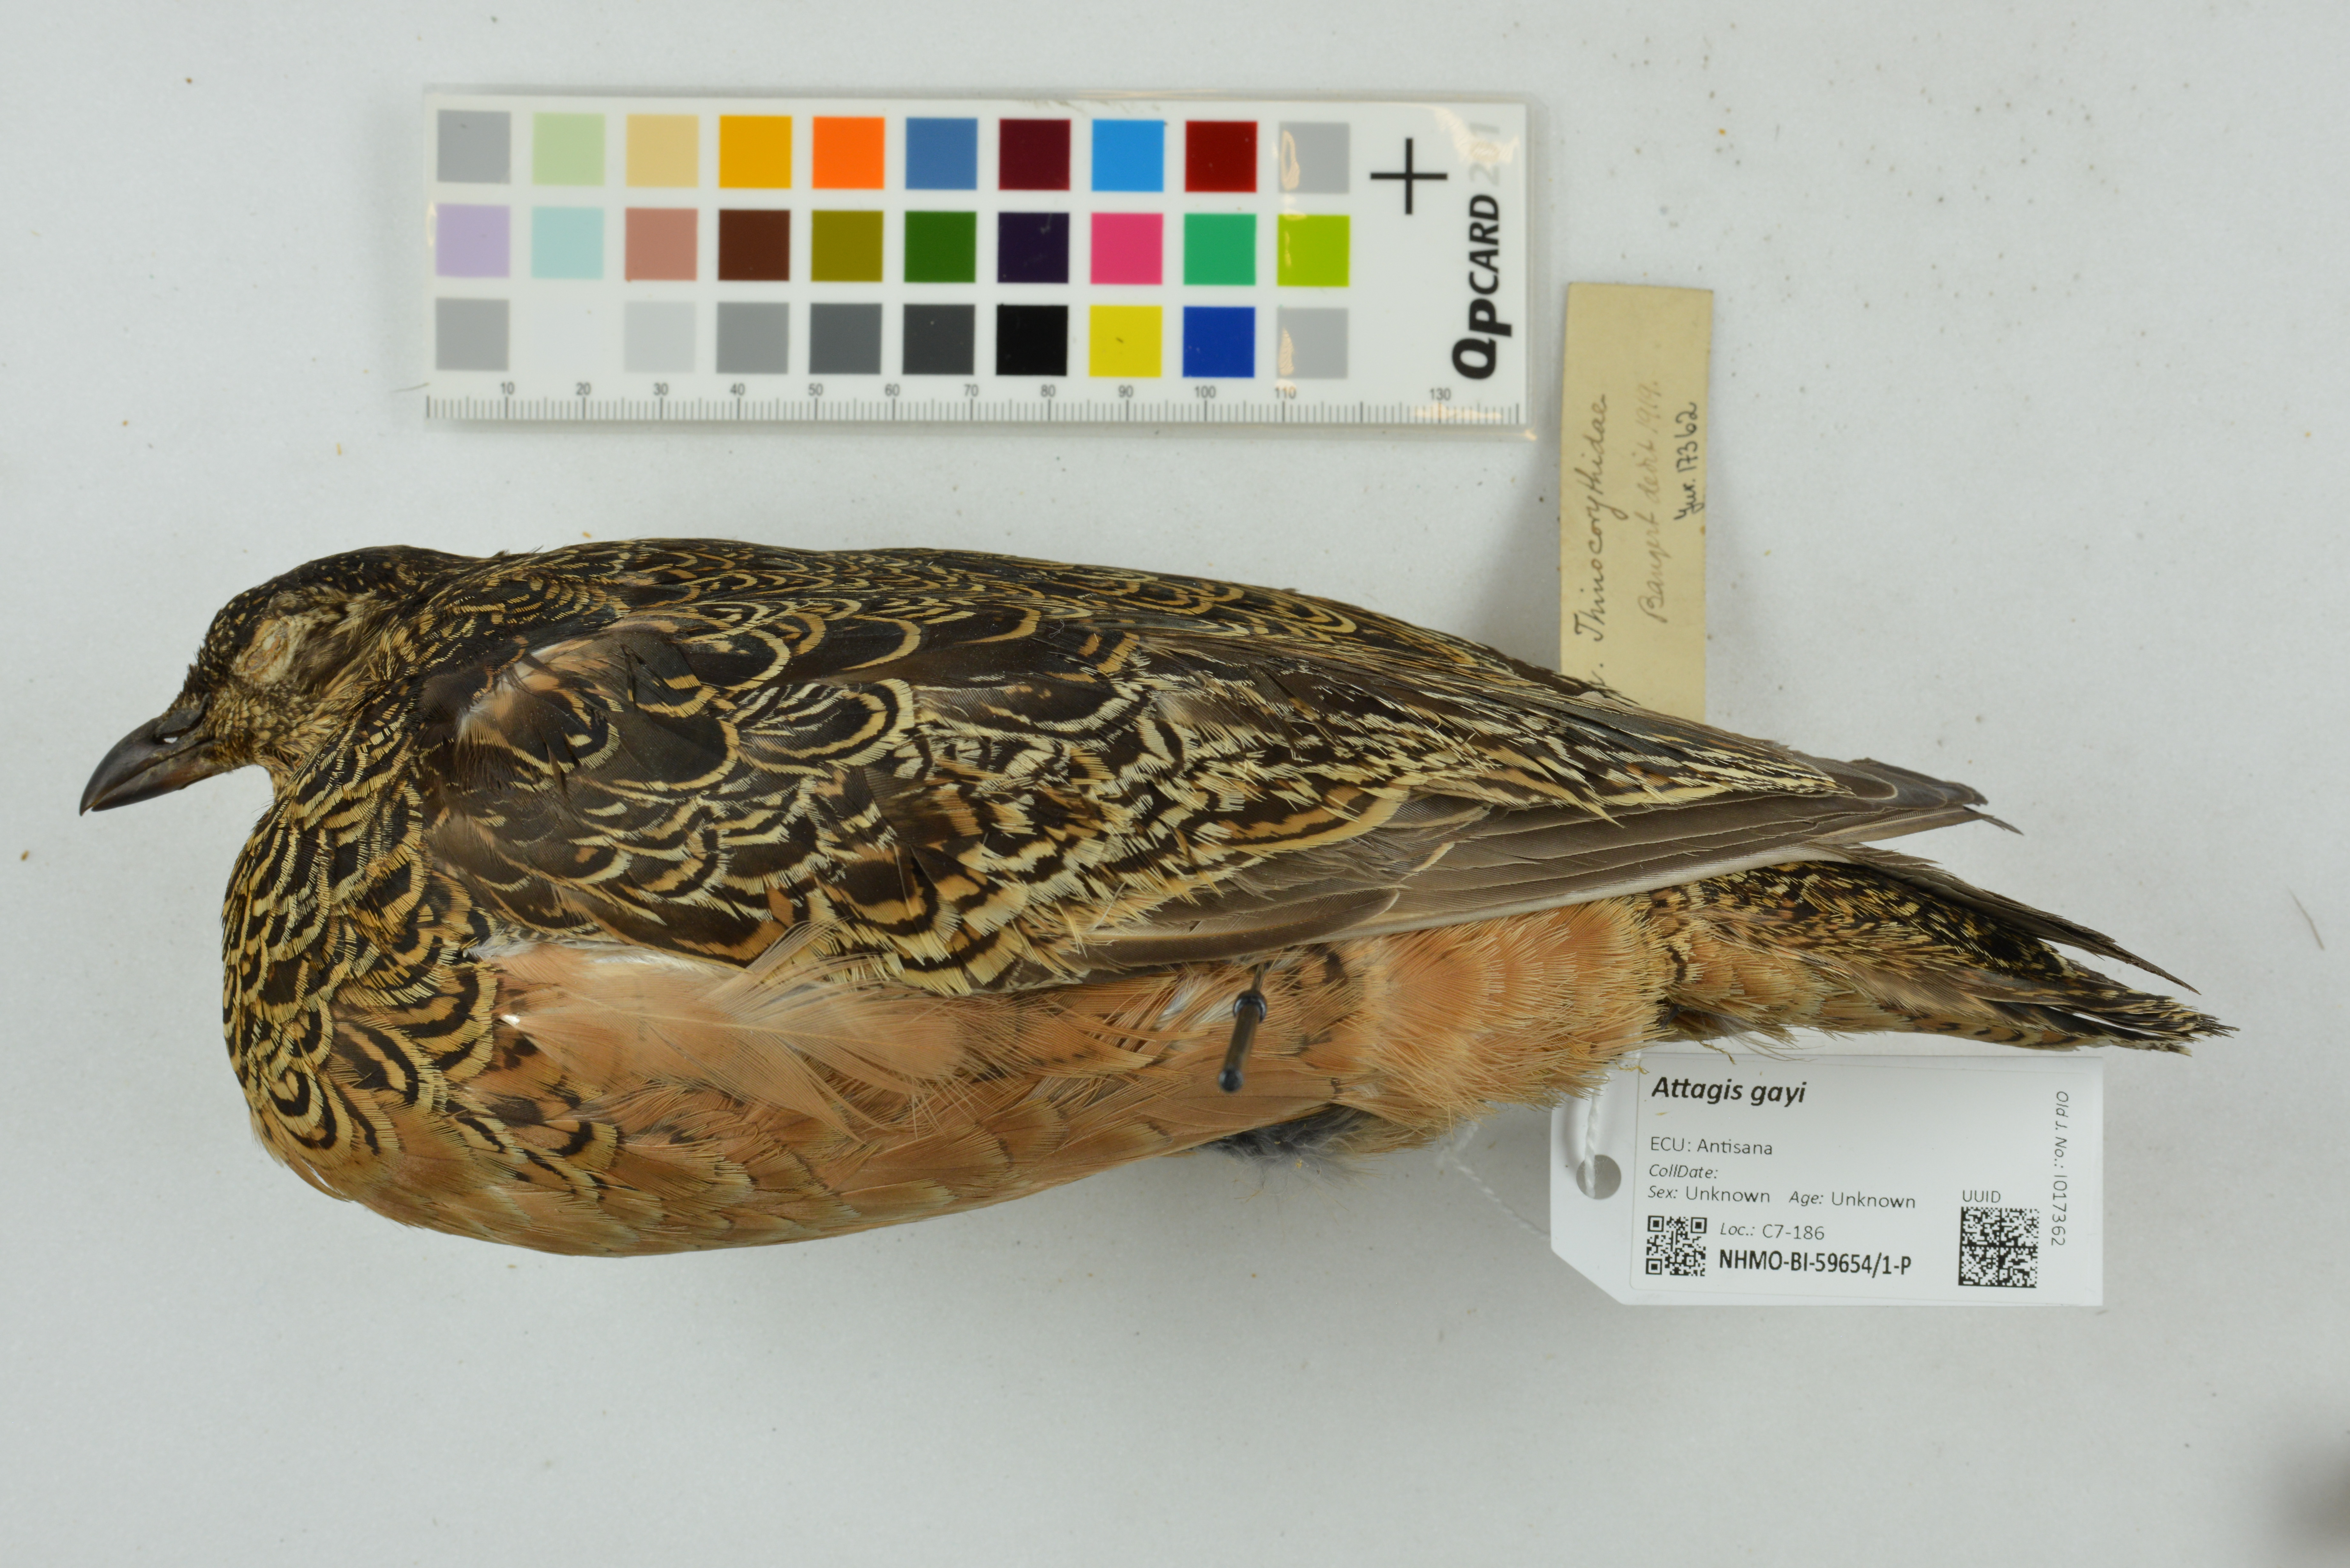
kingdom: Animalia
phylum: Chordata
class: Aves
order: Charadriiformes
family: Thinocoridae
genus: Attagis
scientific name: Attagis gayi
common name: Rufous-bellied seedsnipe
